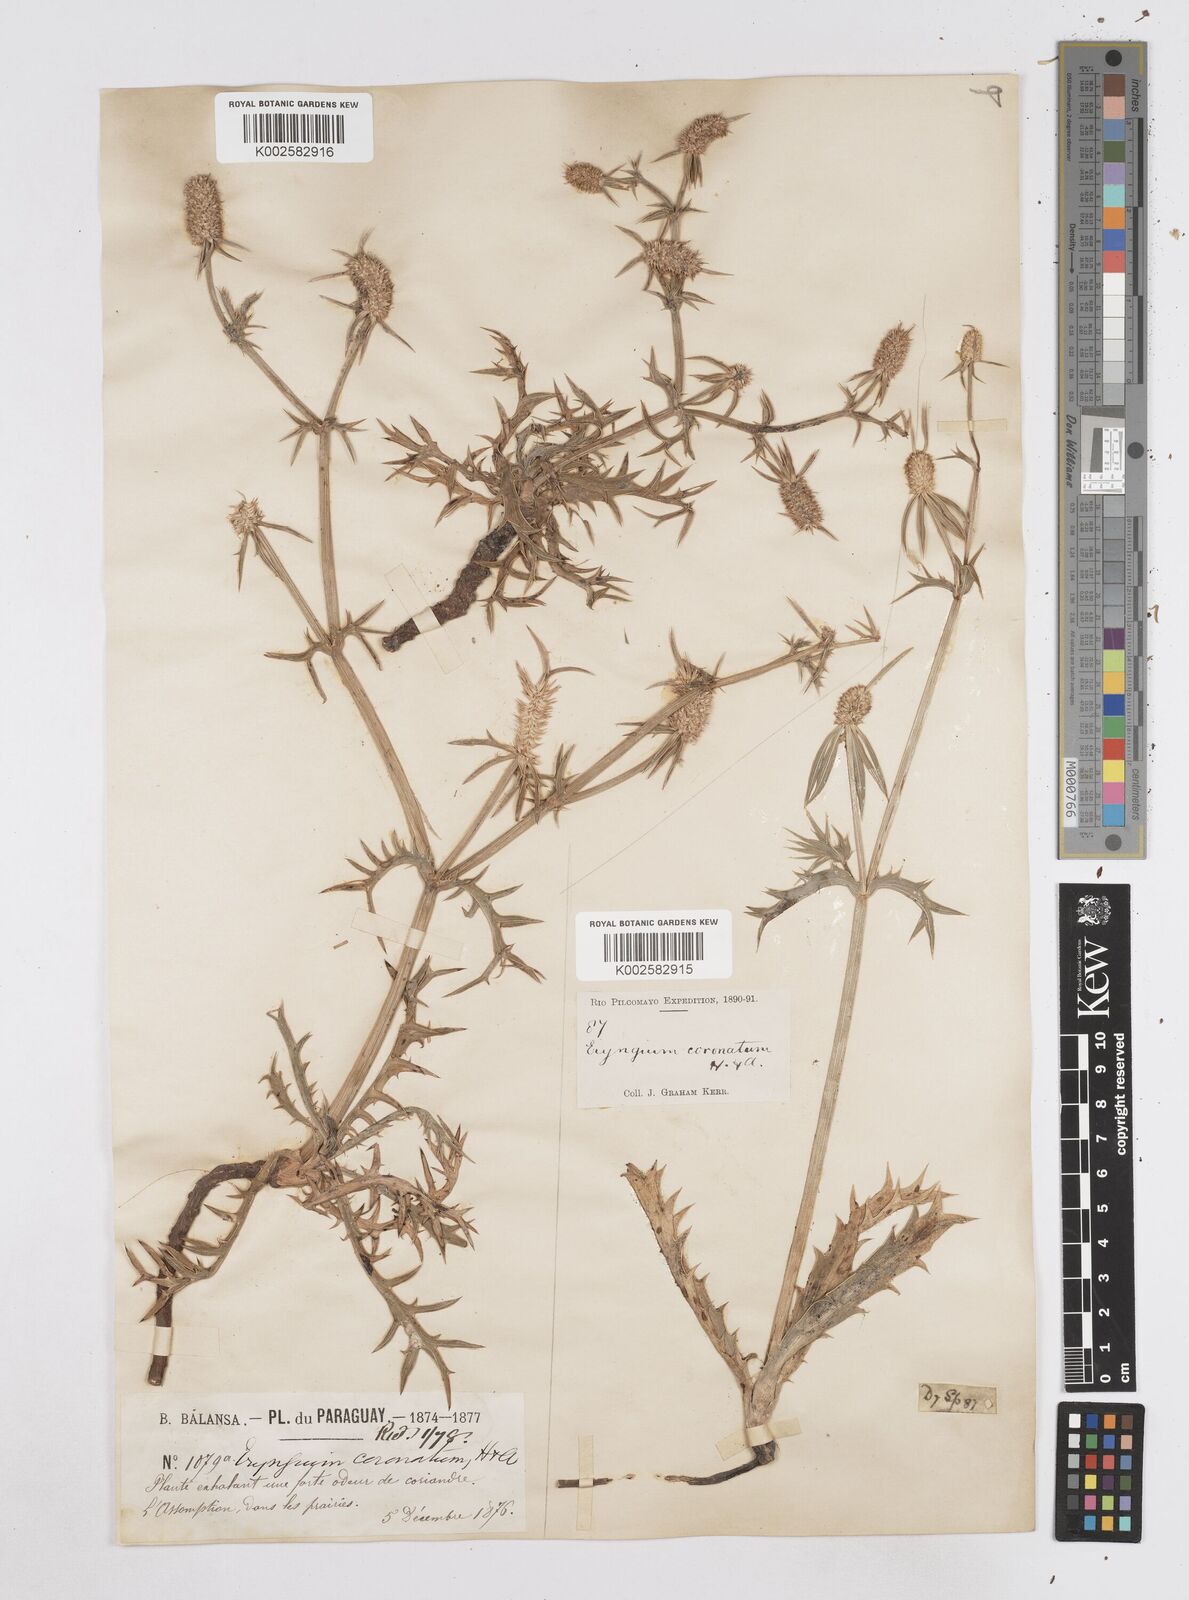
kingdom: Plantae
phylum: Tracheophyta
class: Magnoliopsida
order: Apiales
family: Apiaceae
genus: Eryngium
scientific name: Eryngium coronatum
